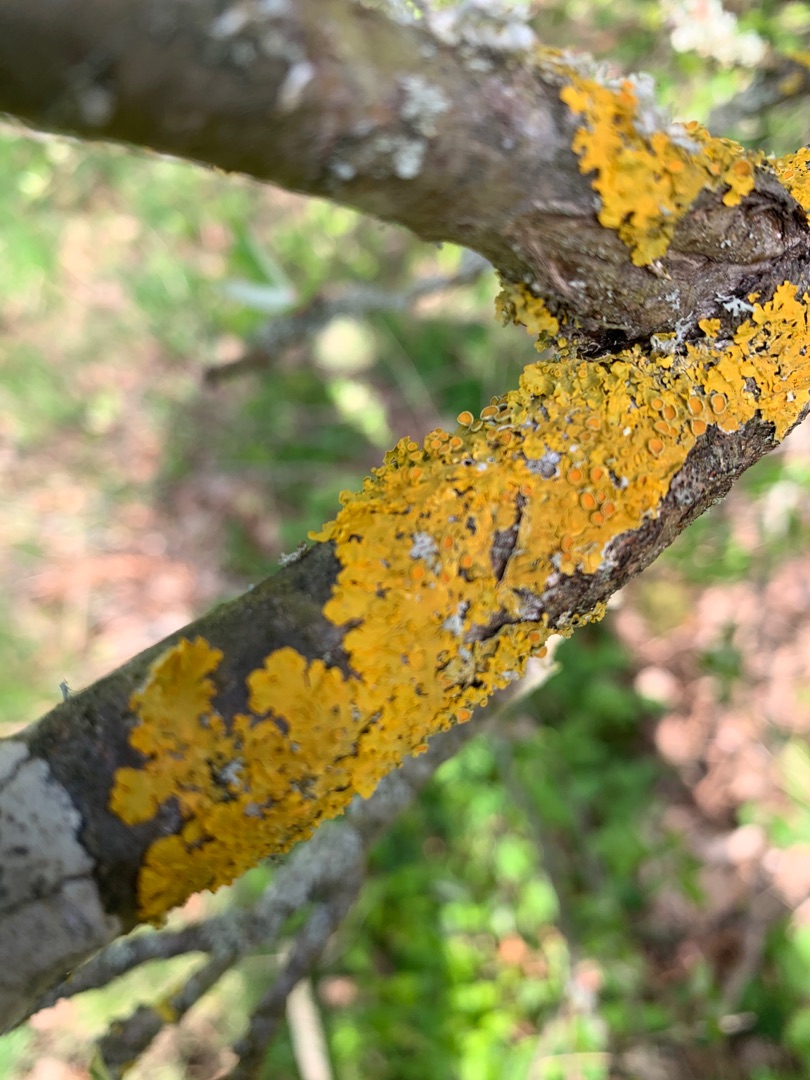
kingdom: Fungi
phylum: Ascomycota
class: Lecanoromycetes
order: Teloschistales
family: Teloschistaceae
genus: Xanthoria
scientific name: Xanthoria parietina
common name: Almindelig væggelav
